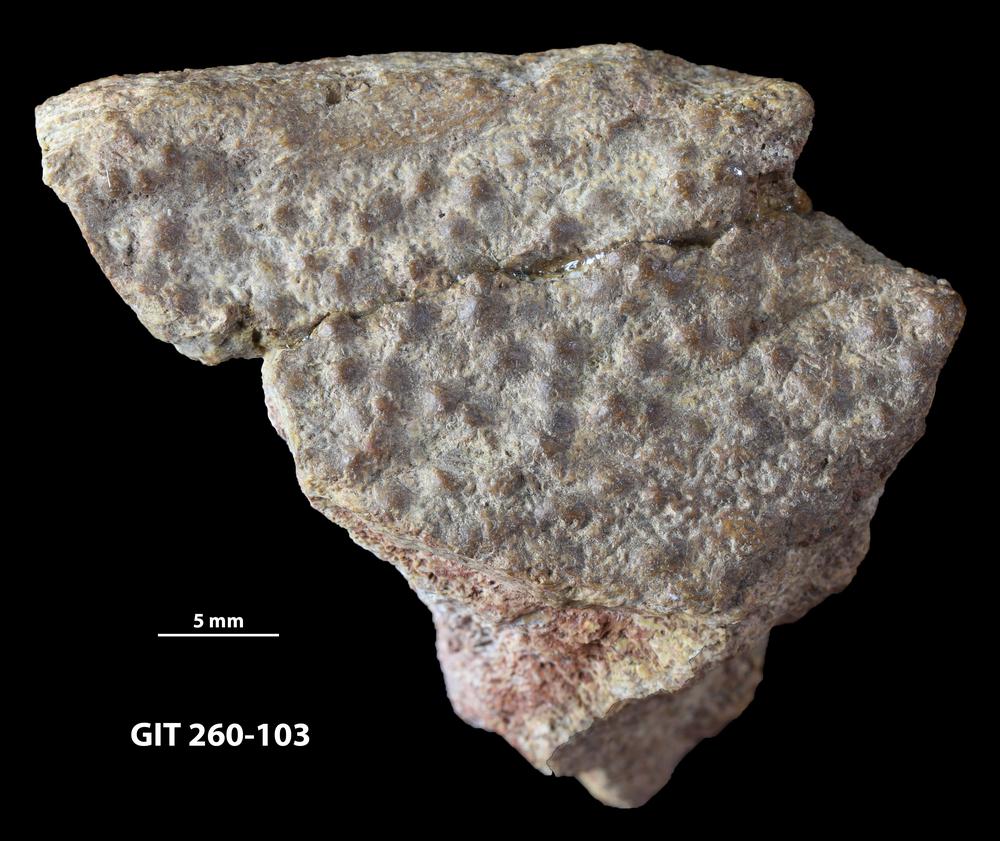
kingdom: Animalia
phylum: Chordata
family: Homostiidae
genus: Homostius
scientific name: Homostius
